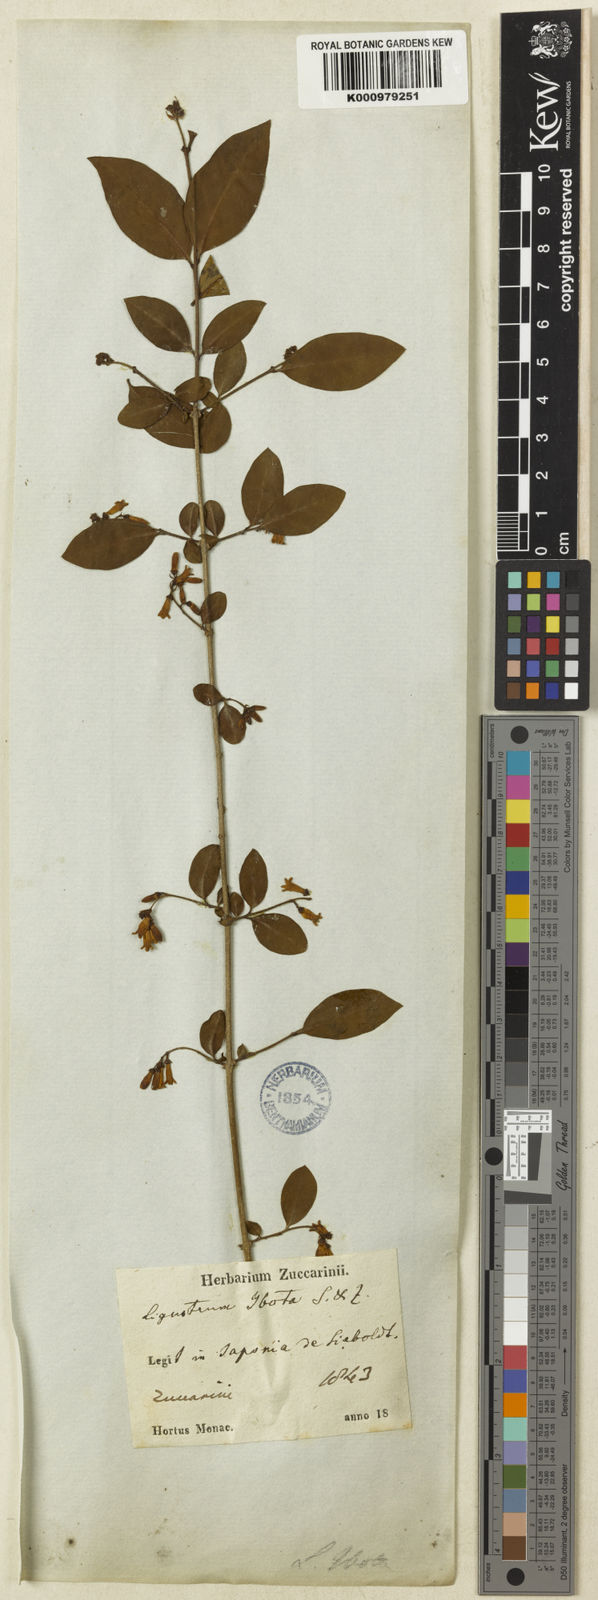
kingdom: Plantae
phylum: Tracheophyta
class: Magnoliopsida
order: Lamiales
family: Oleaceae
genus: Ligustrum
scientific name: Ligustrum ibota
